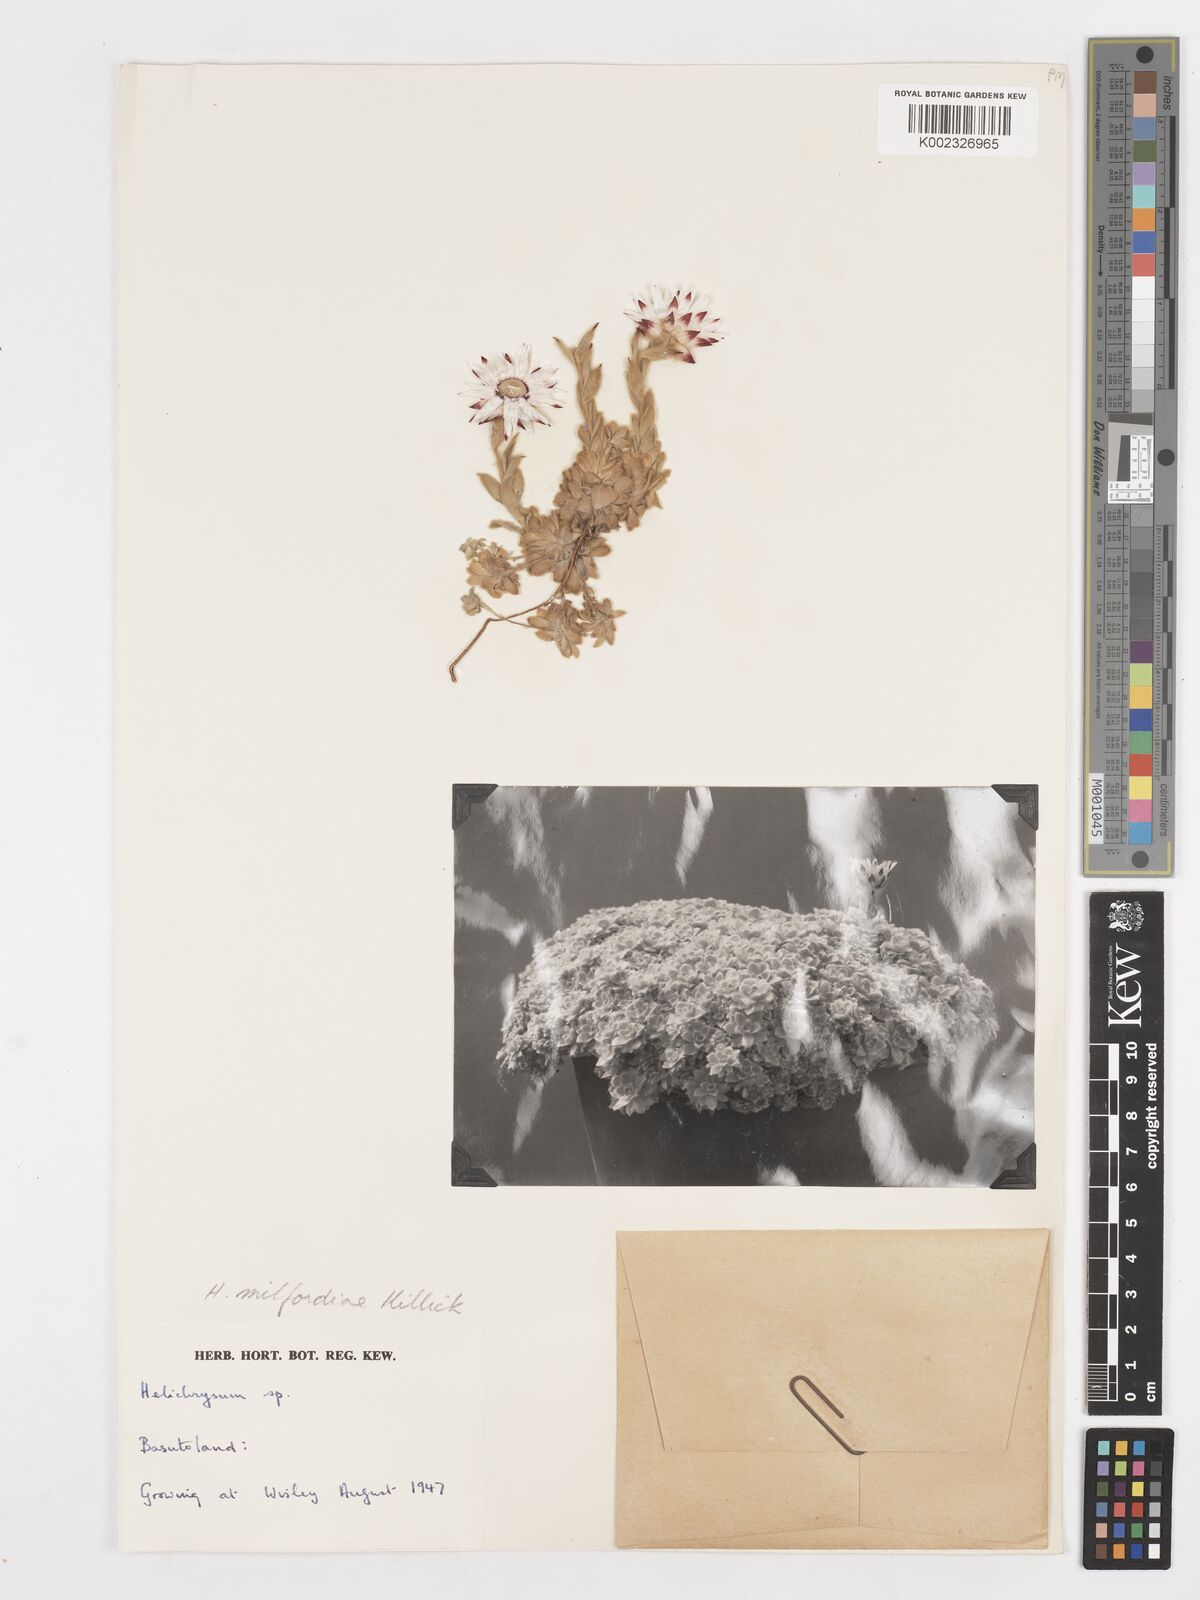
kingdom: Plantae
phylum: Tracheophyta
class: Magnoliopsida
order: Asterales
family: Asteraceae
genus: Helichrysum
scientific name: Helichrysum milfordiae
